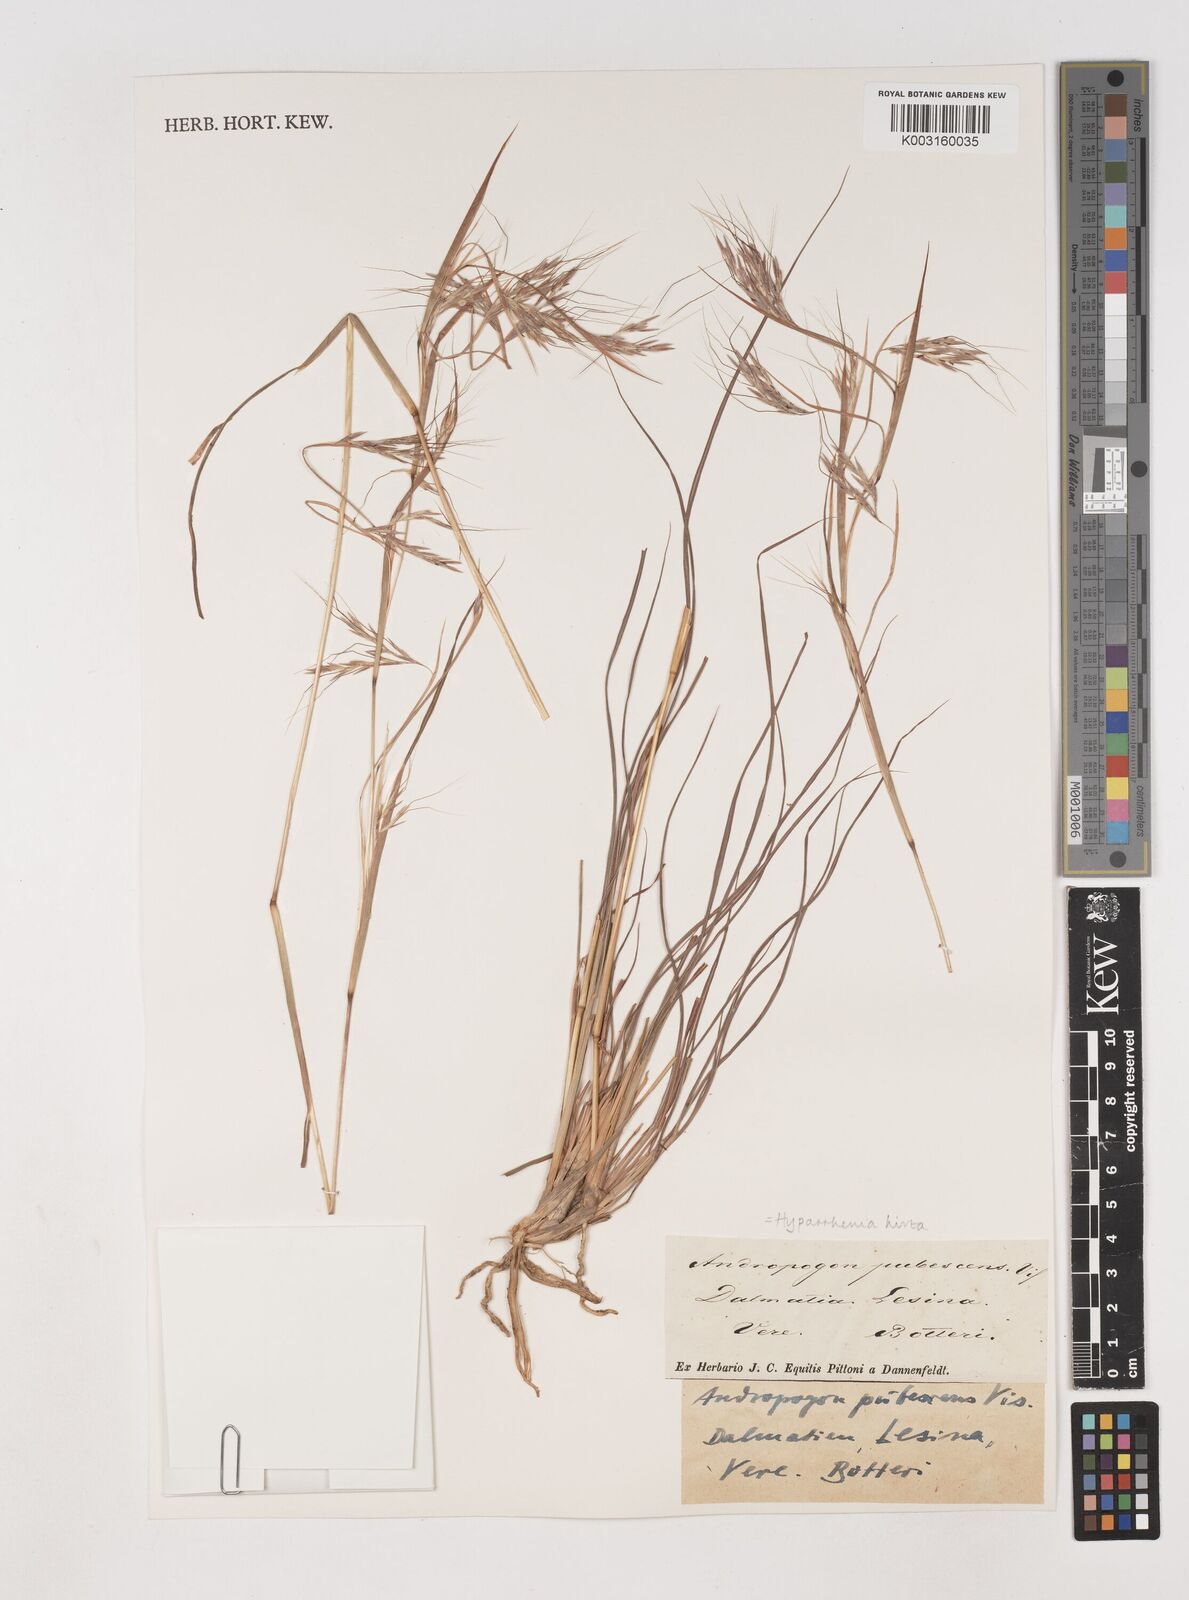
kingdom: Plantae
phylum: Tracheophyta
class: Liliopsida
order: Poales
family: Poaceae
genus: Hyparrhenia
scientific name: Hyparrhenia hirta
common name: Thatching grass
